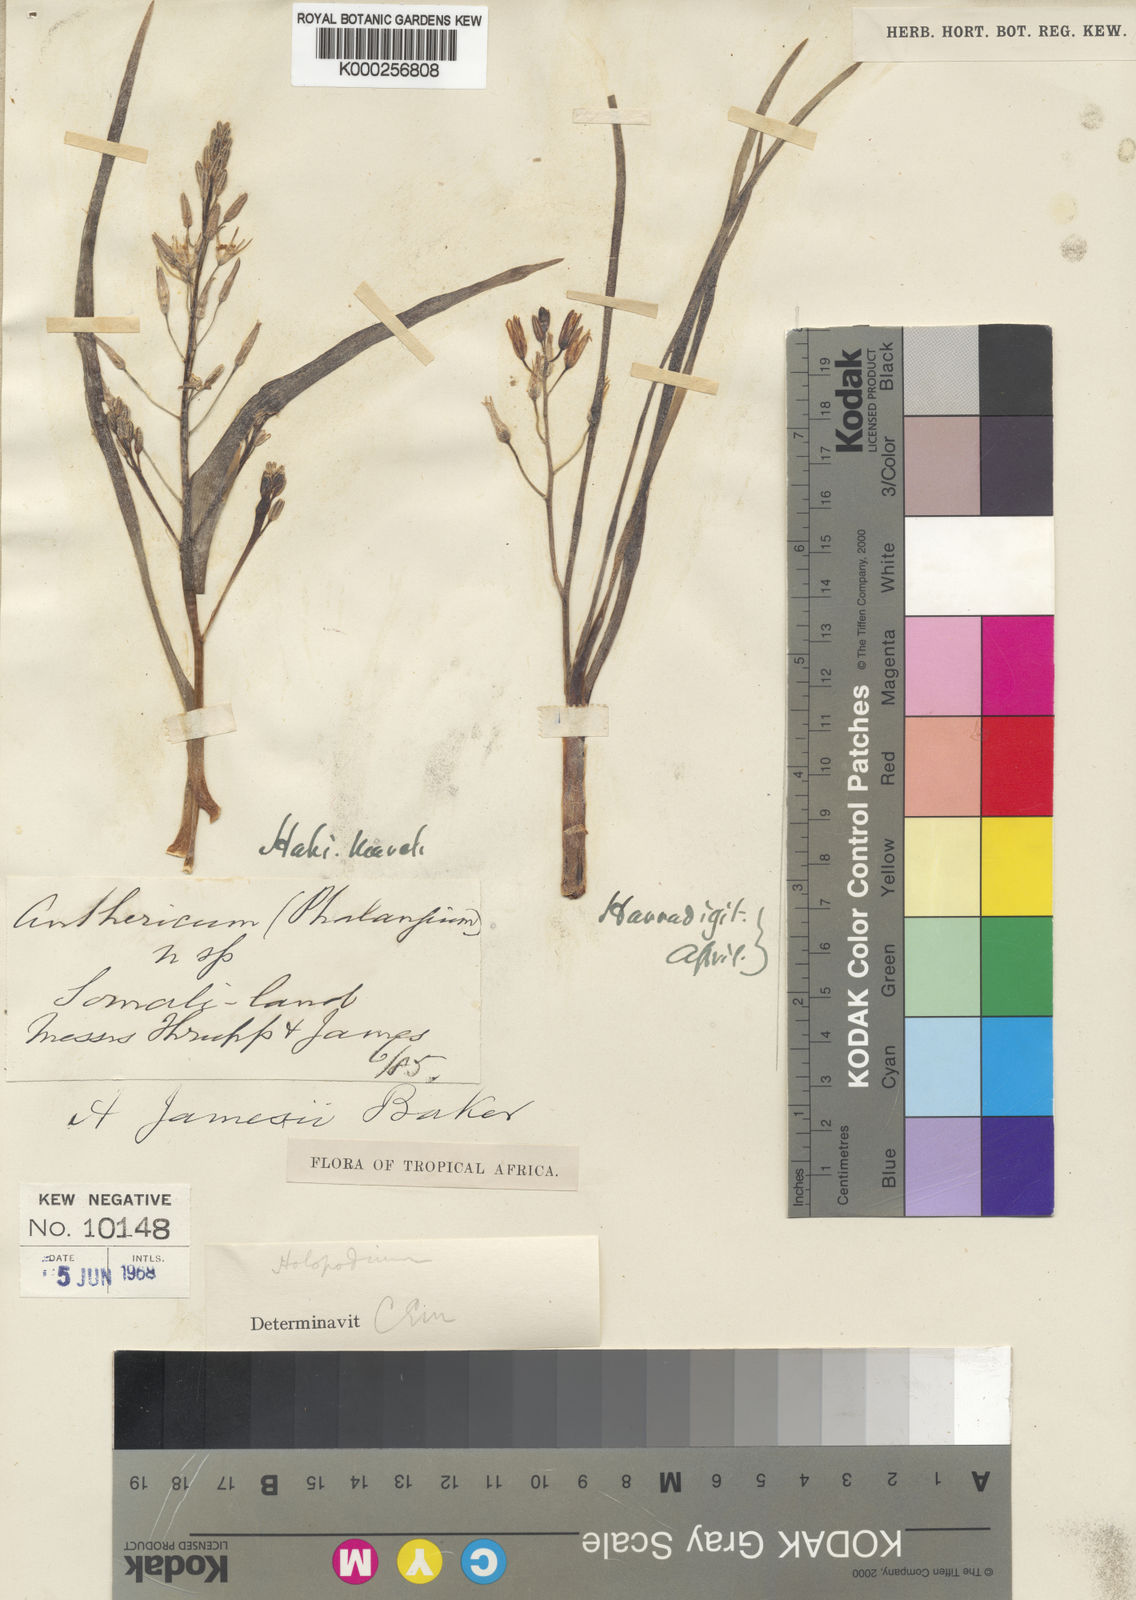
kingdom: Plantae
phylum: Tracheophyta
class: Liliopsida
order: Asparagales
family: Asparagaceae
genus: Anthericum
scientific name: Anthericum jamesii
